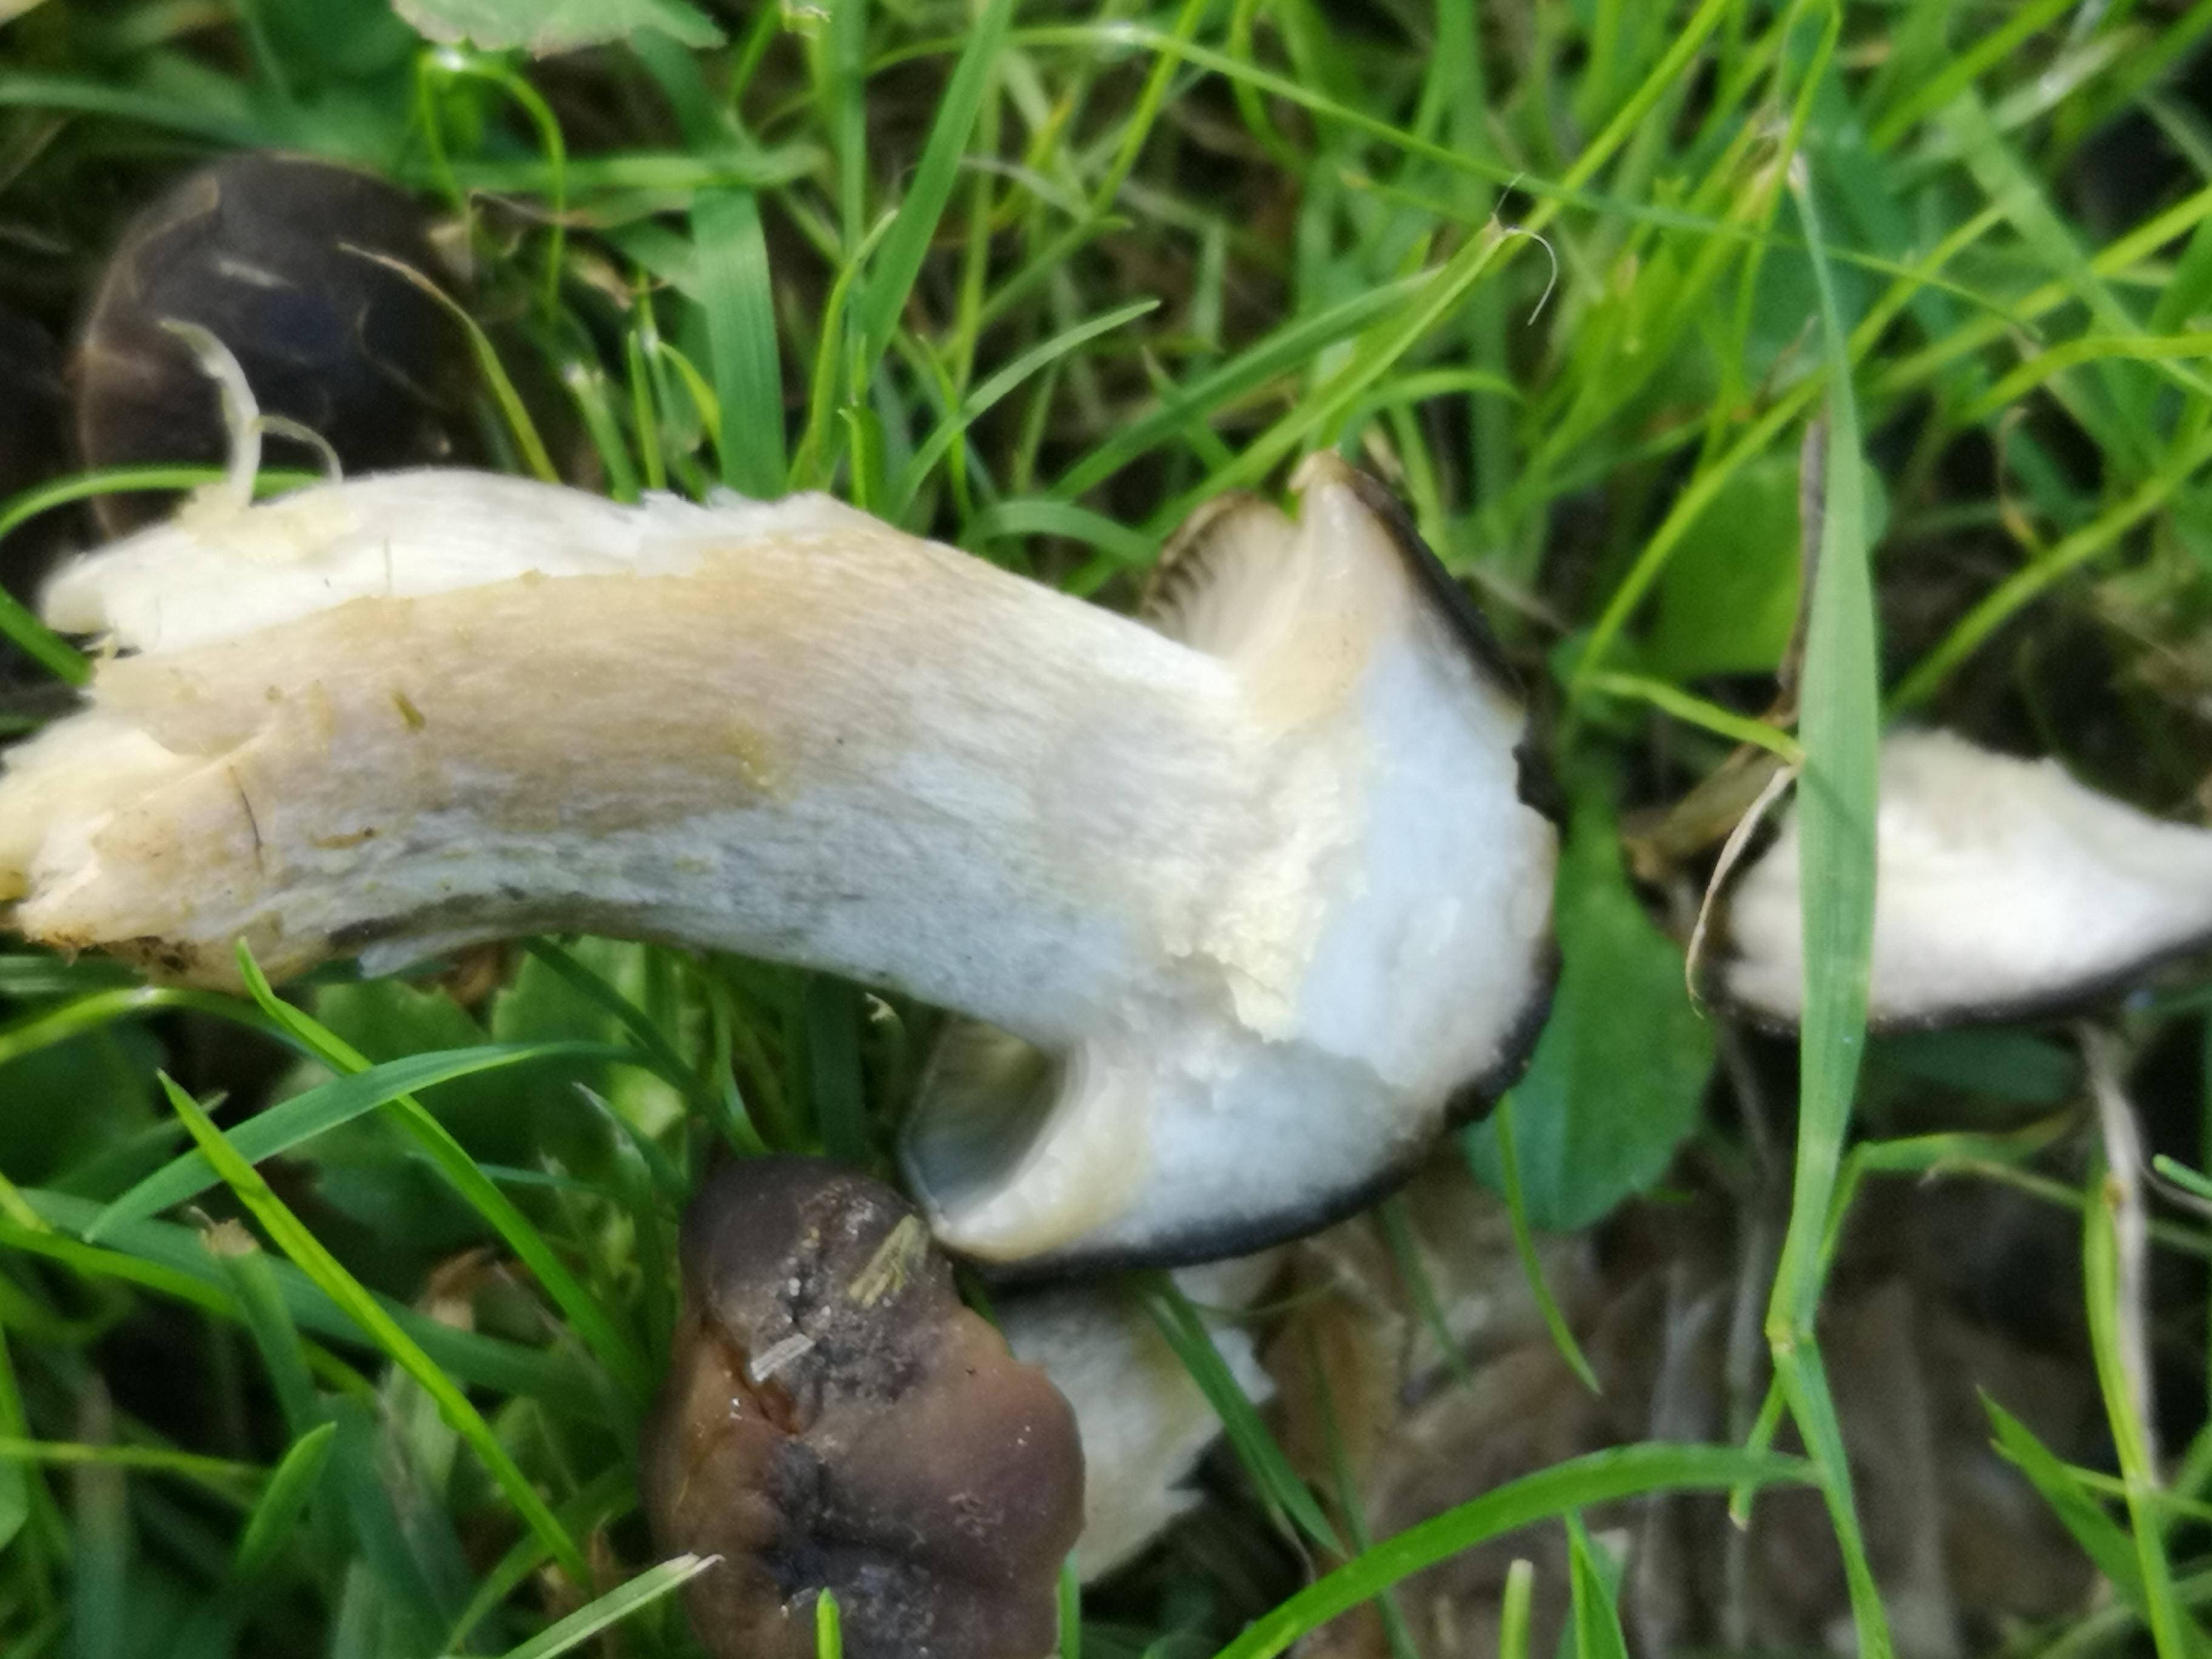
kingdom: Fungi
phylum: Basidiomycota
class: Agaricomycetes
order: Agaricales
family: Lyophyllaceae
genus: Lyophyllum
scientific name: Lyophyllum decastes
